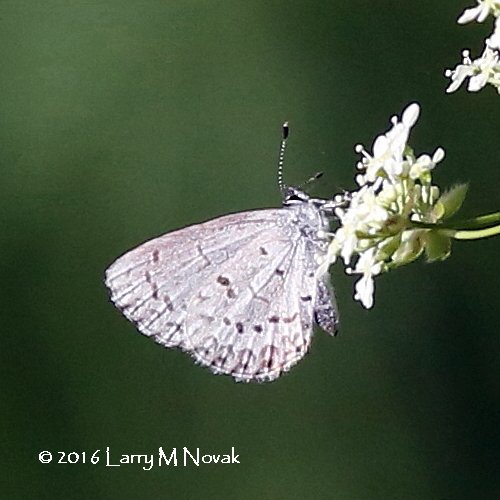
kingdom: Animalia
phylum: Arthropoda
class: Insecta
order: Lepidoptera
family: Lycaenidae
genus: Celastrina
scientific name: Celastrina
